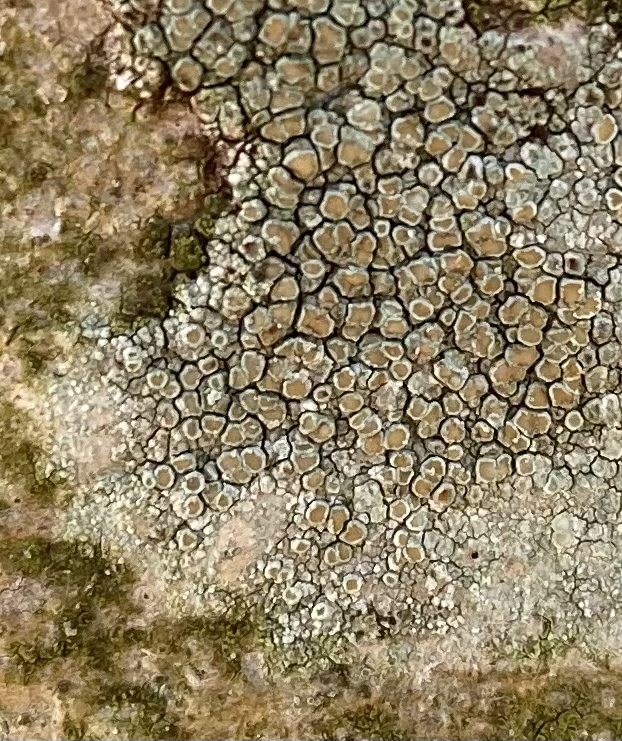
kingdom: Fungi
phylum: Ascomycota
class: Lecanoromycetes
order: Lecanorales
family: Lecanoraceae
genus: Lecanora
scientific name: Lecanora chlarotera
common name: brun kantskivelav
